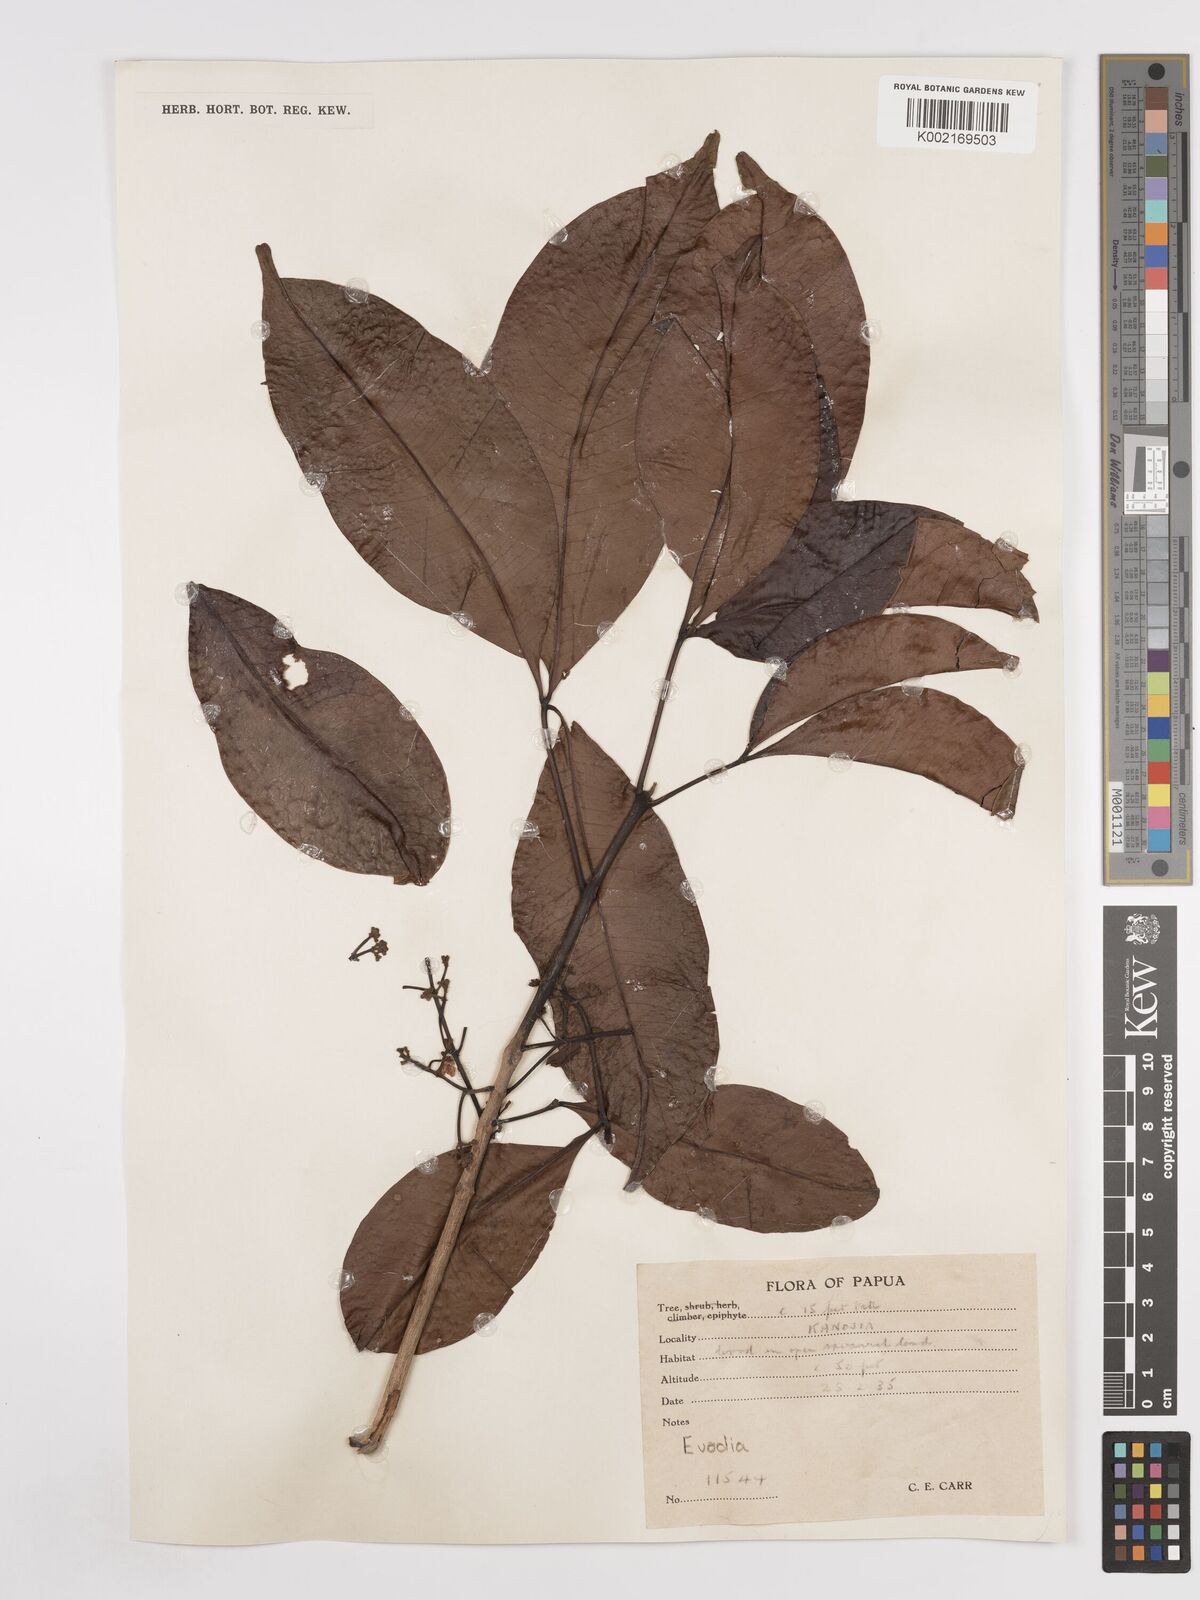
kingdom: Plantae
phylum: Tracheophyta
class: Magnoliopsida
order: Sapindales
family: Rutaceae
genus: Euodia
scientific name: Euodia
